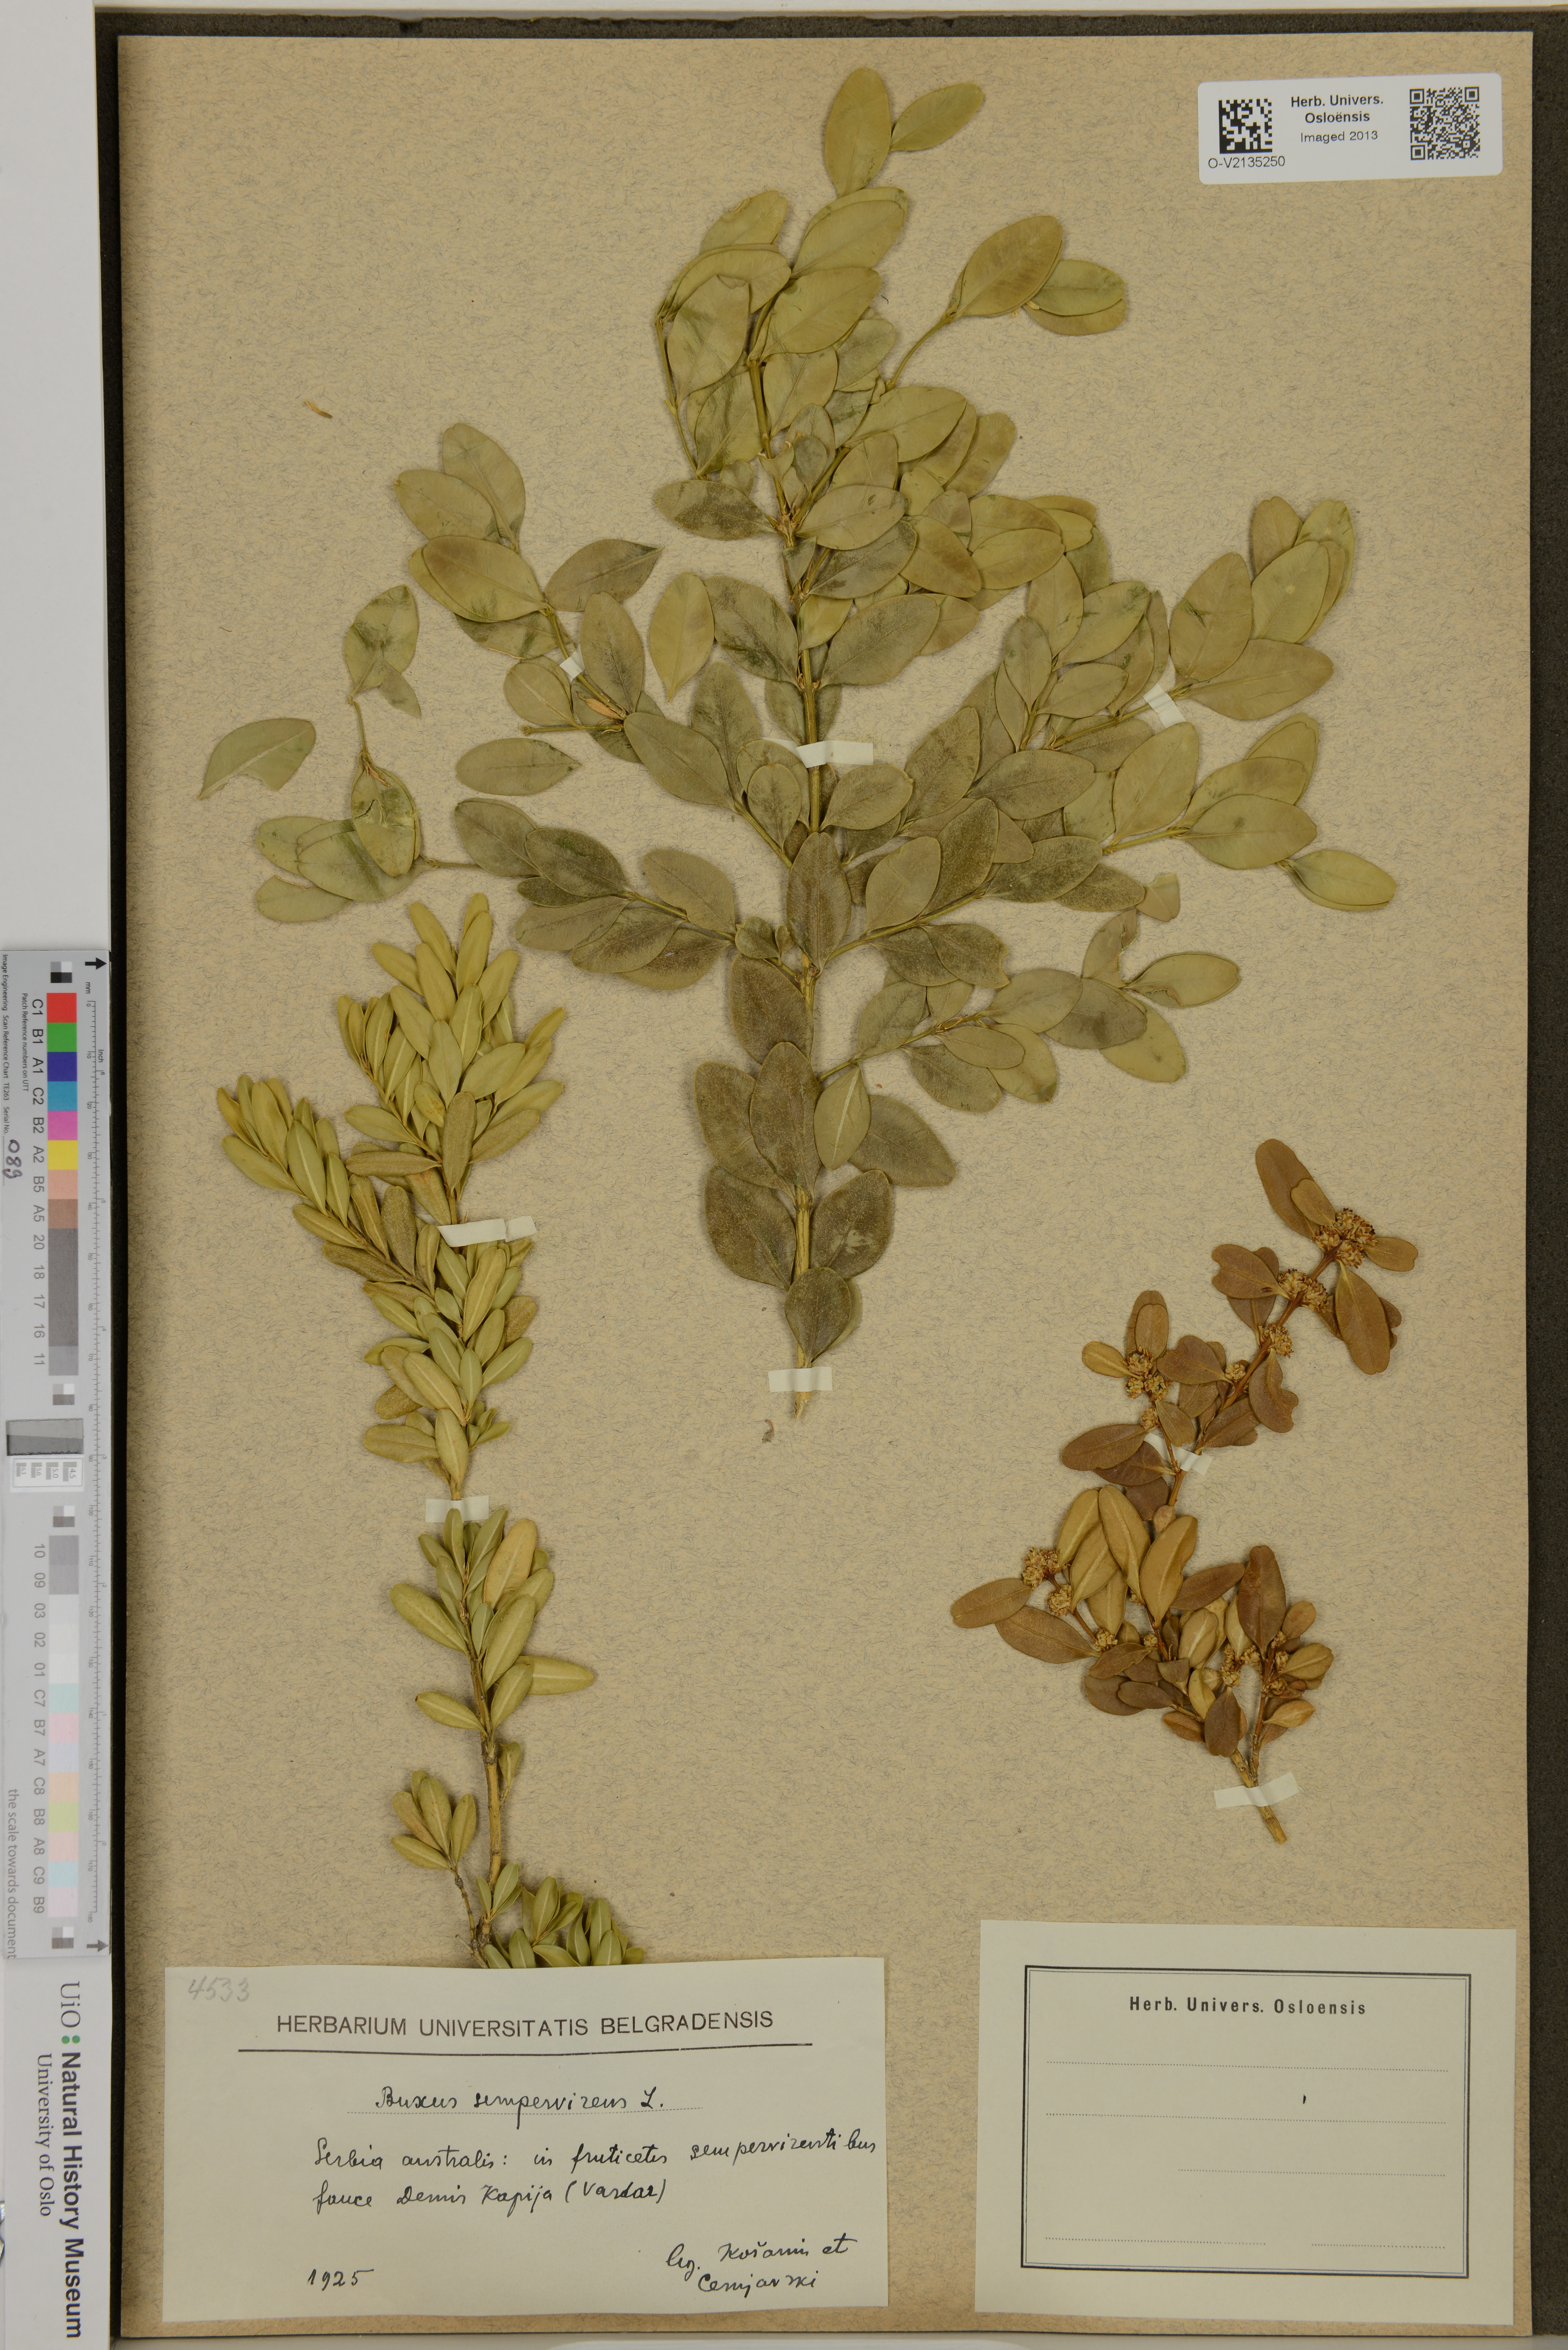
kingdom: Plantae
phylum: Tracheophyta
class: Magnoliopsida
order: Buxales
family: Buxaceae
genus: Buxus
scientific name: Buxus sempervirens
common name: Box
